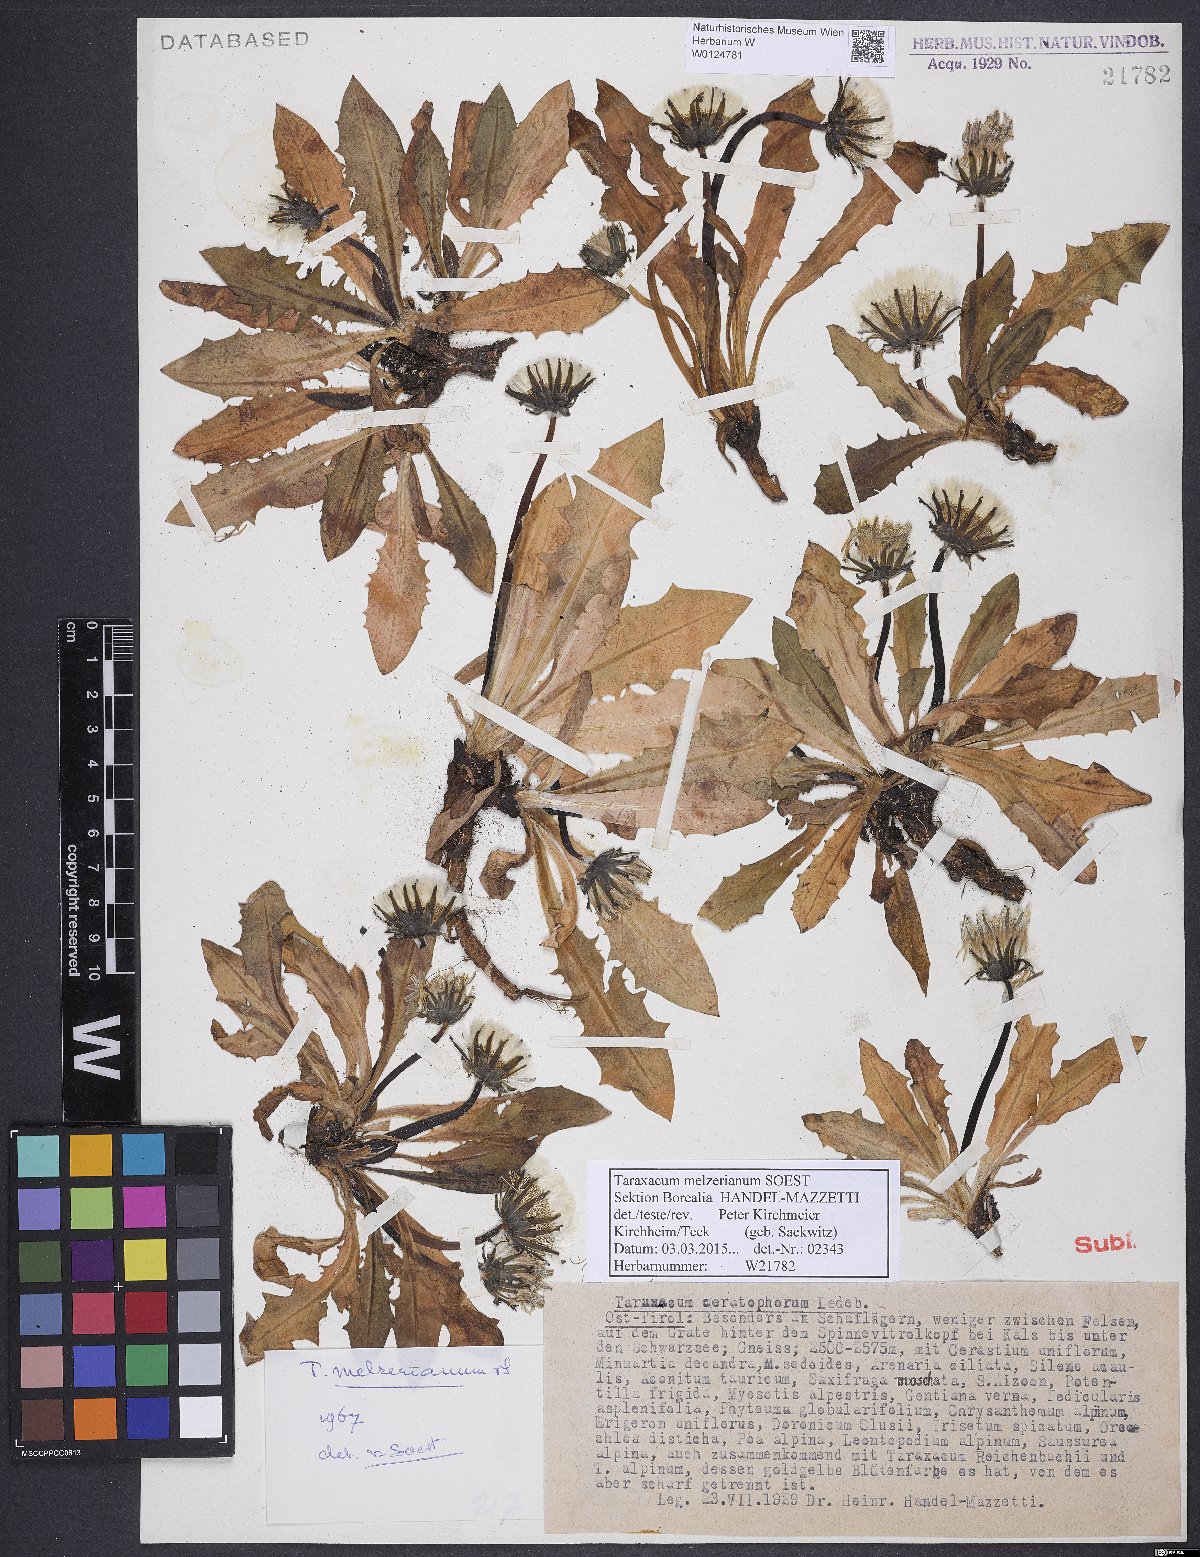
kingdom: Plantae
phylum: Tracheophyta
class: Magnoliopsida
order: Asterales
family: Asteraceae
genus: Taraxacum
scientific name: Taraxacum melzerianum
